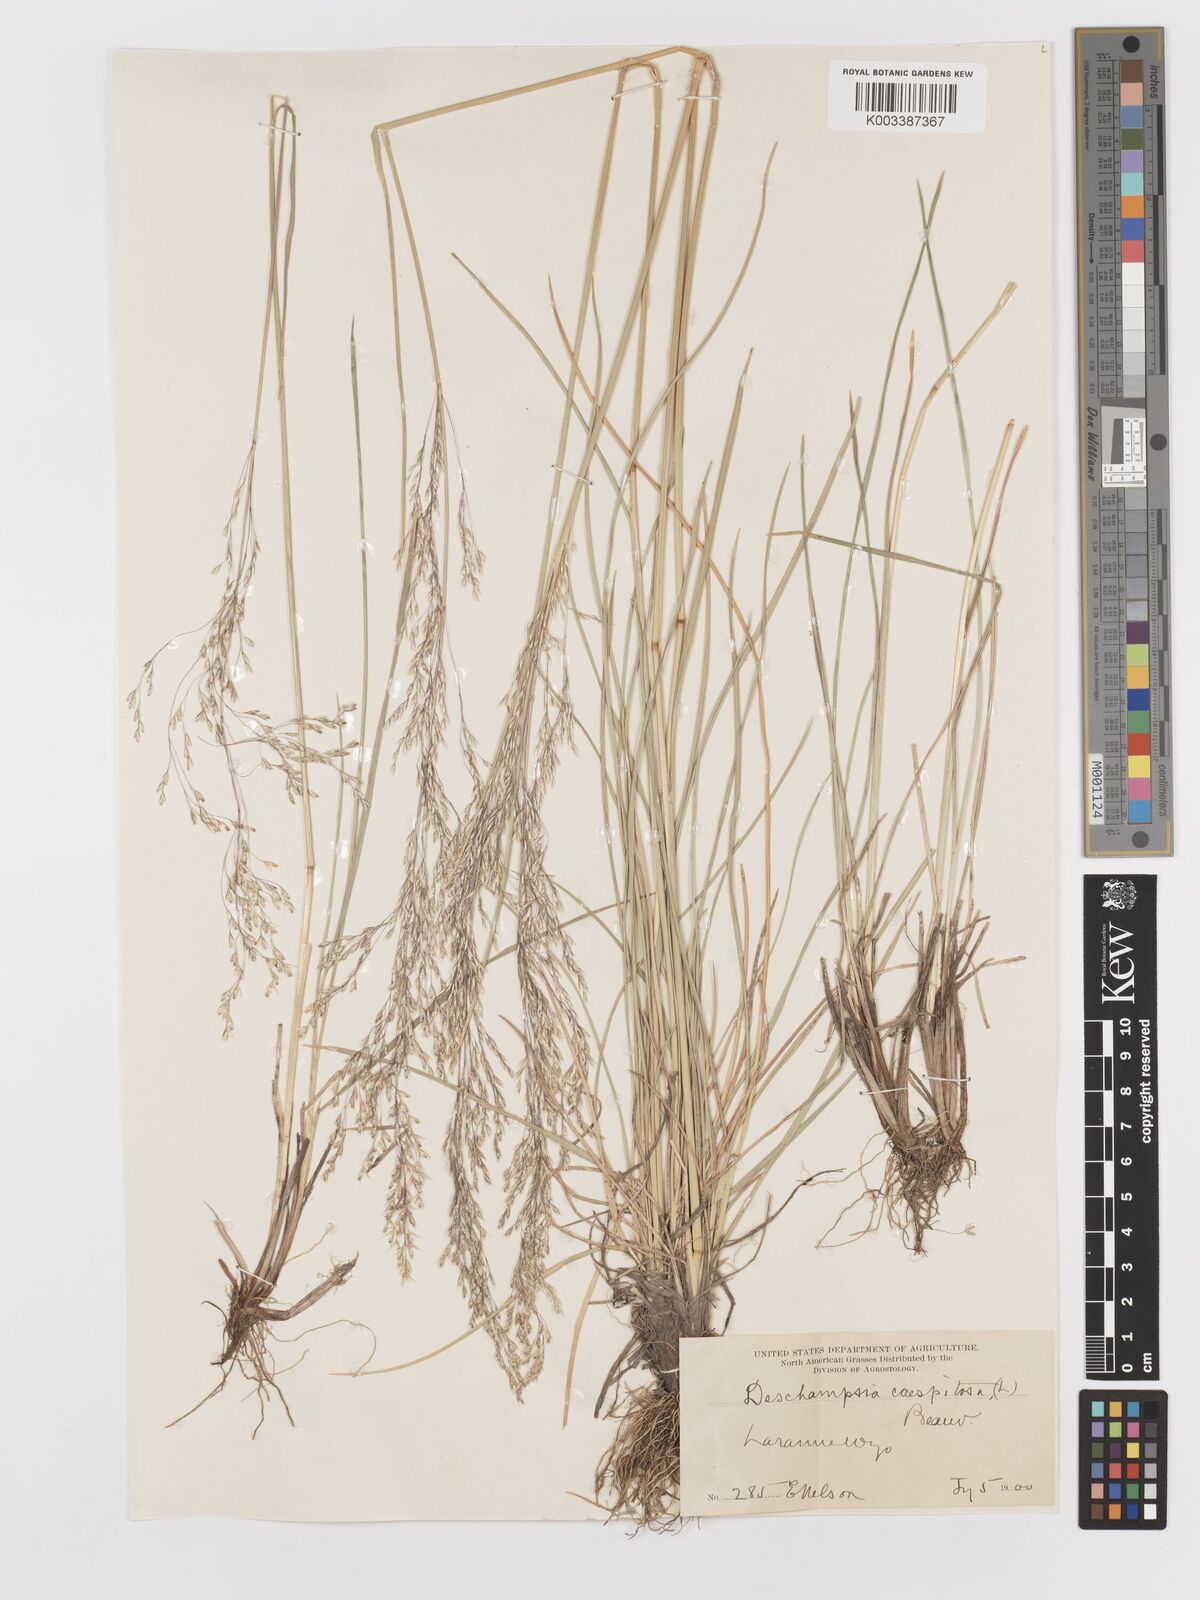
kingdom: Plantae
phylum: Tracheophyta
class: Liliopsida
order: Poales
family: Poaceae
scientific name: Poaceae
